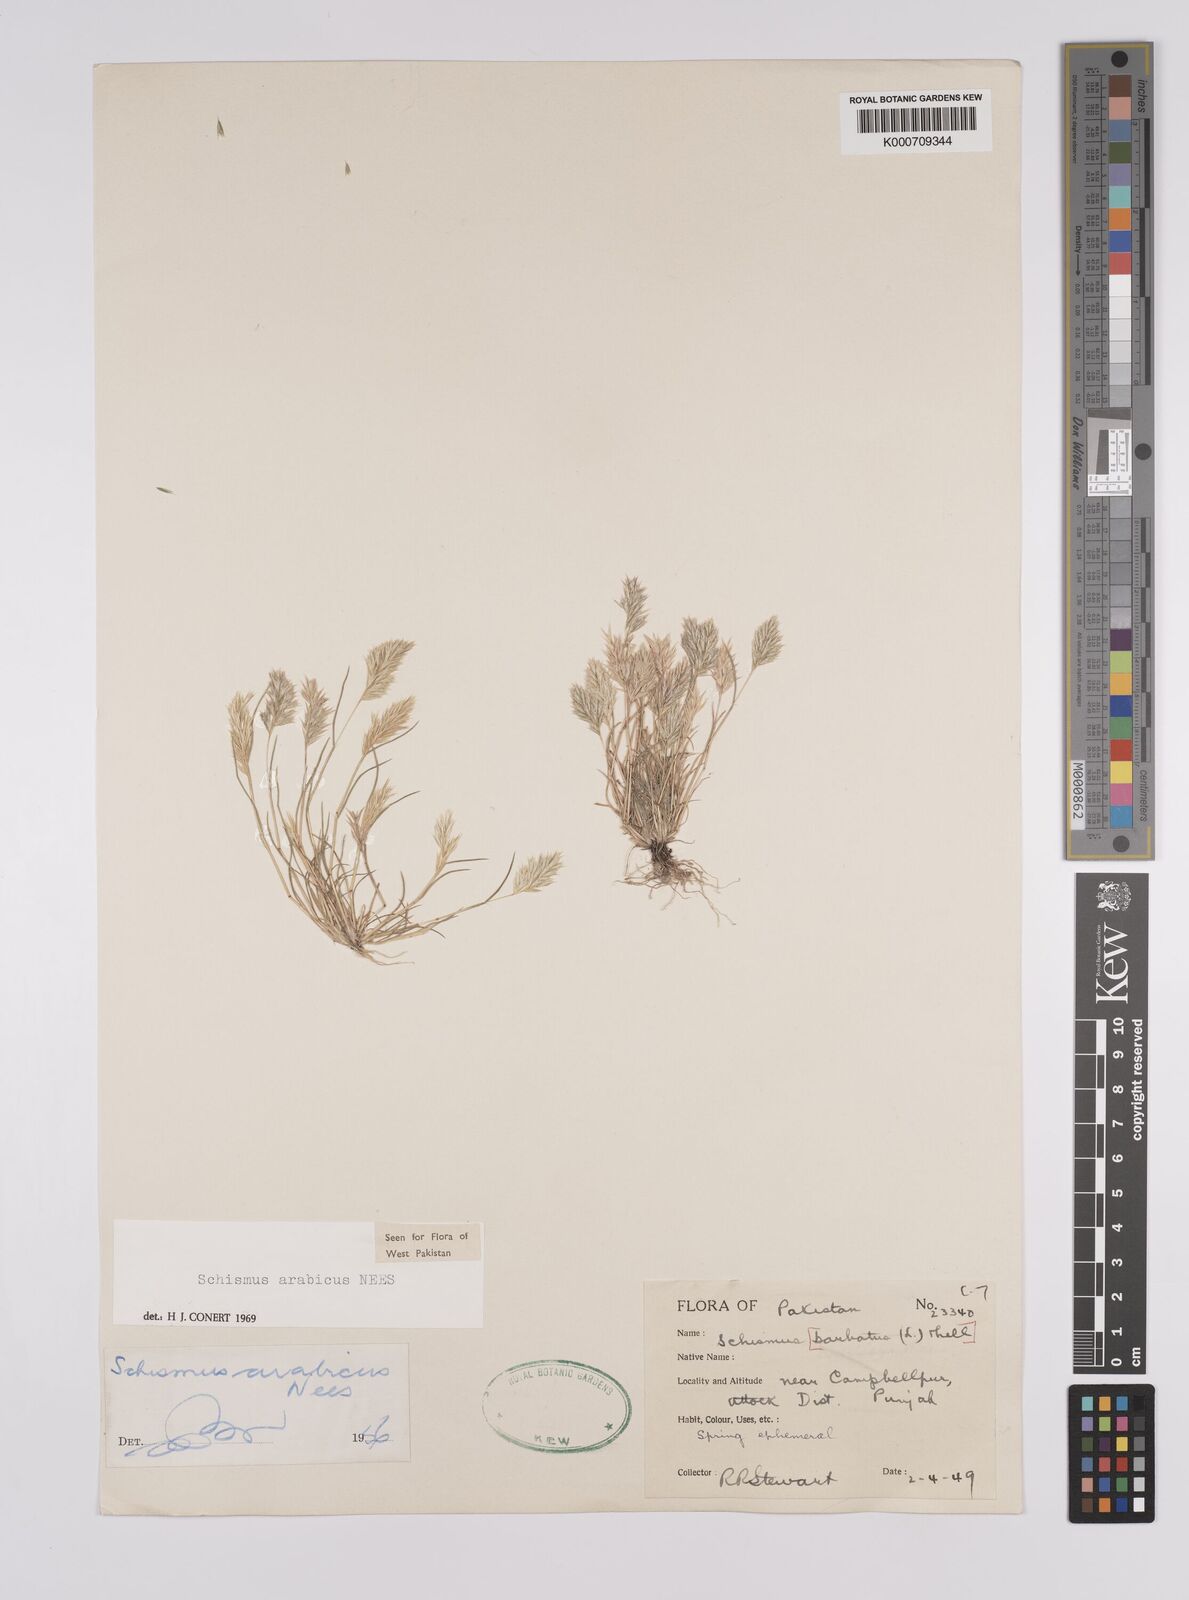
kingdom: Plantae
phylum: Tracheophyta
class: Liliopsida
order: Poales
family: Poaceae
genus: Schismus
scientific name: Schismus arabicus
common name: Arabian schismus
